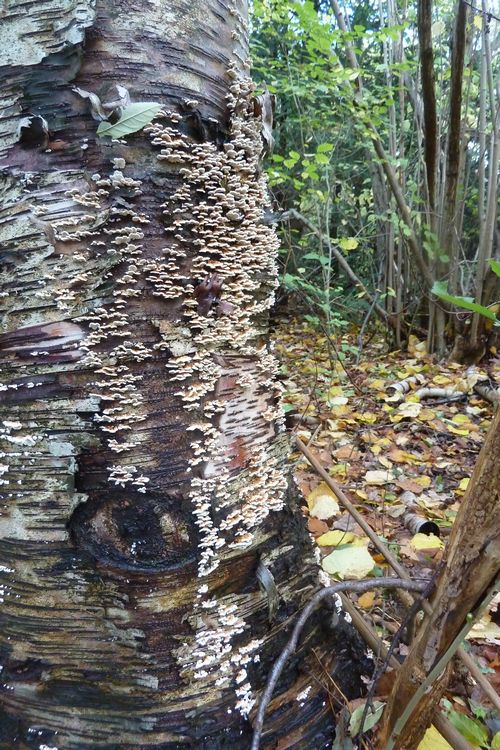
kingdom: Fungi
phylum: Basidiomycota
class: Agaricomycetes
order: Amylocorticiales
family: Amylocorticiaceae
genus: Plicaturopsis
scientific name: Plicaturopsis crispa
